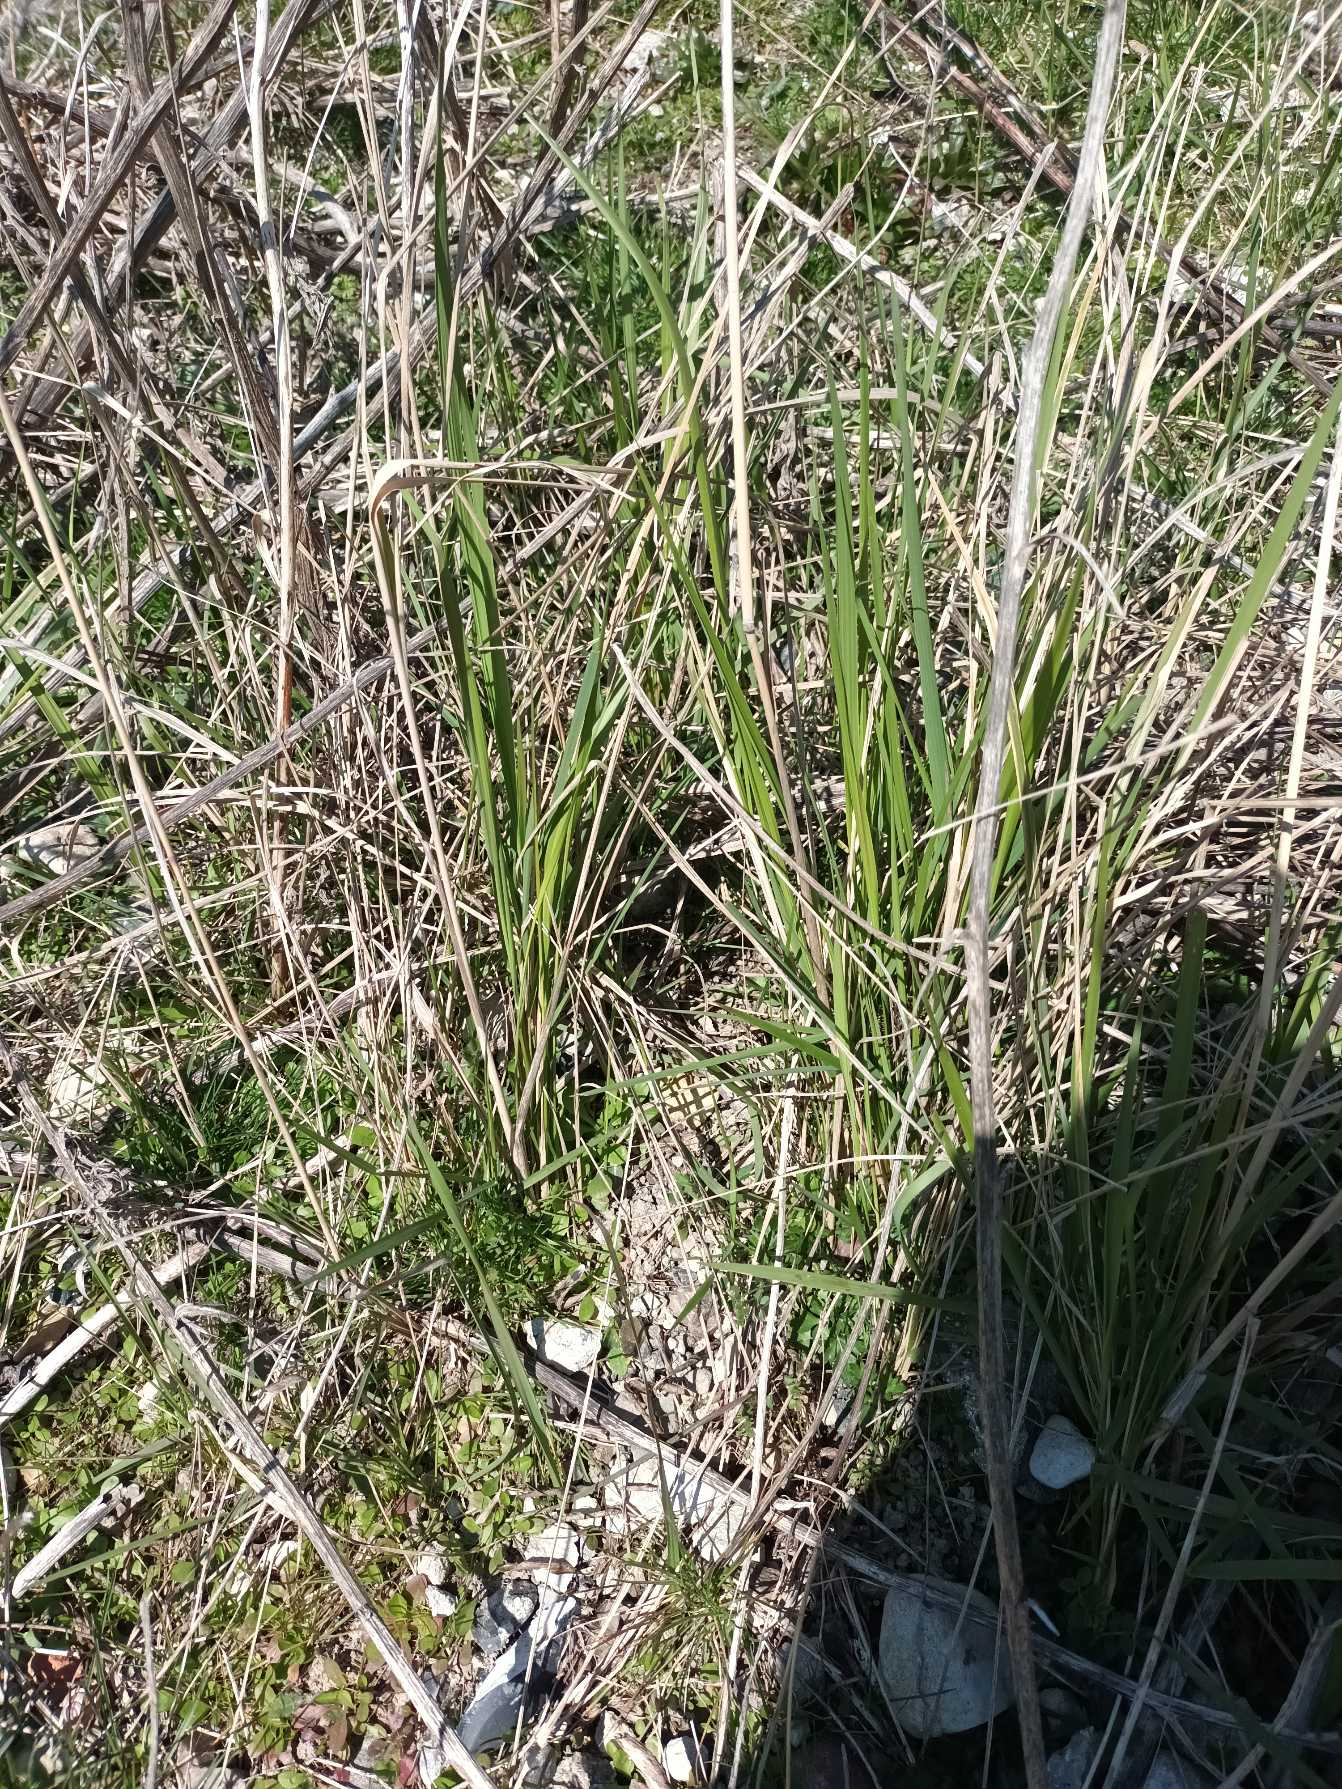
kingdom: Plantae
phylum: Tracheophyta
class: Liliopsida
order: Poales
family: Poaceae
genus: Calamagrostis
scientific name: Calamagrostis epigejos
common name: Bjerg-rørhvene
